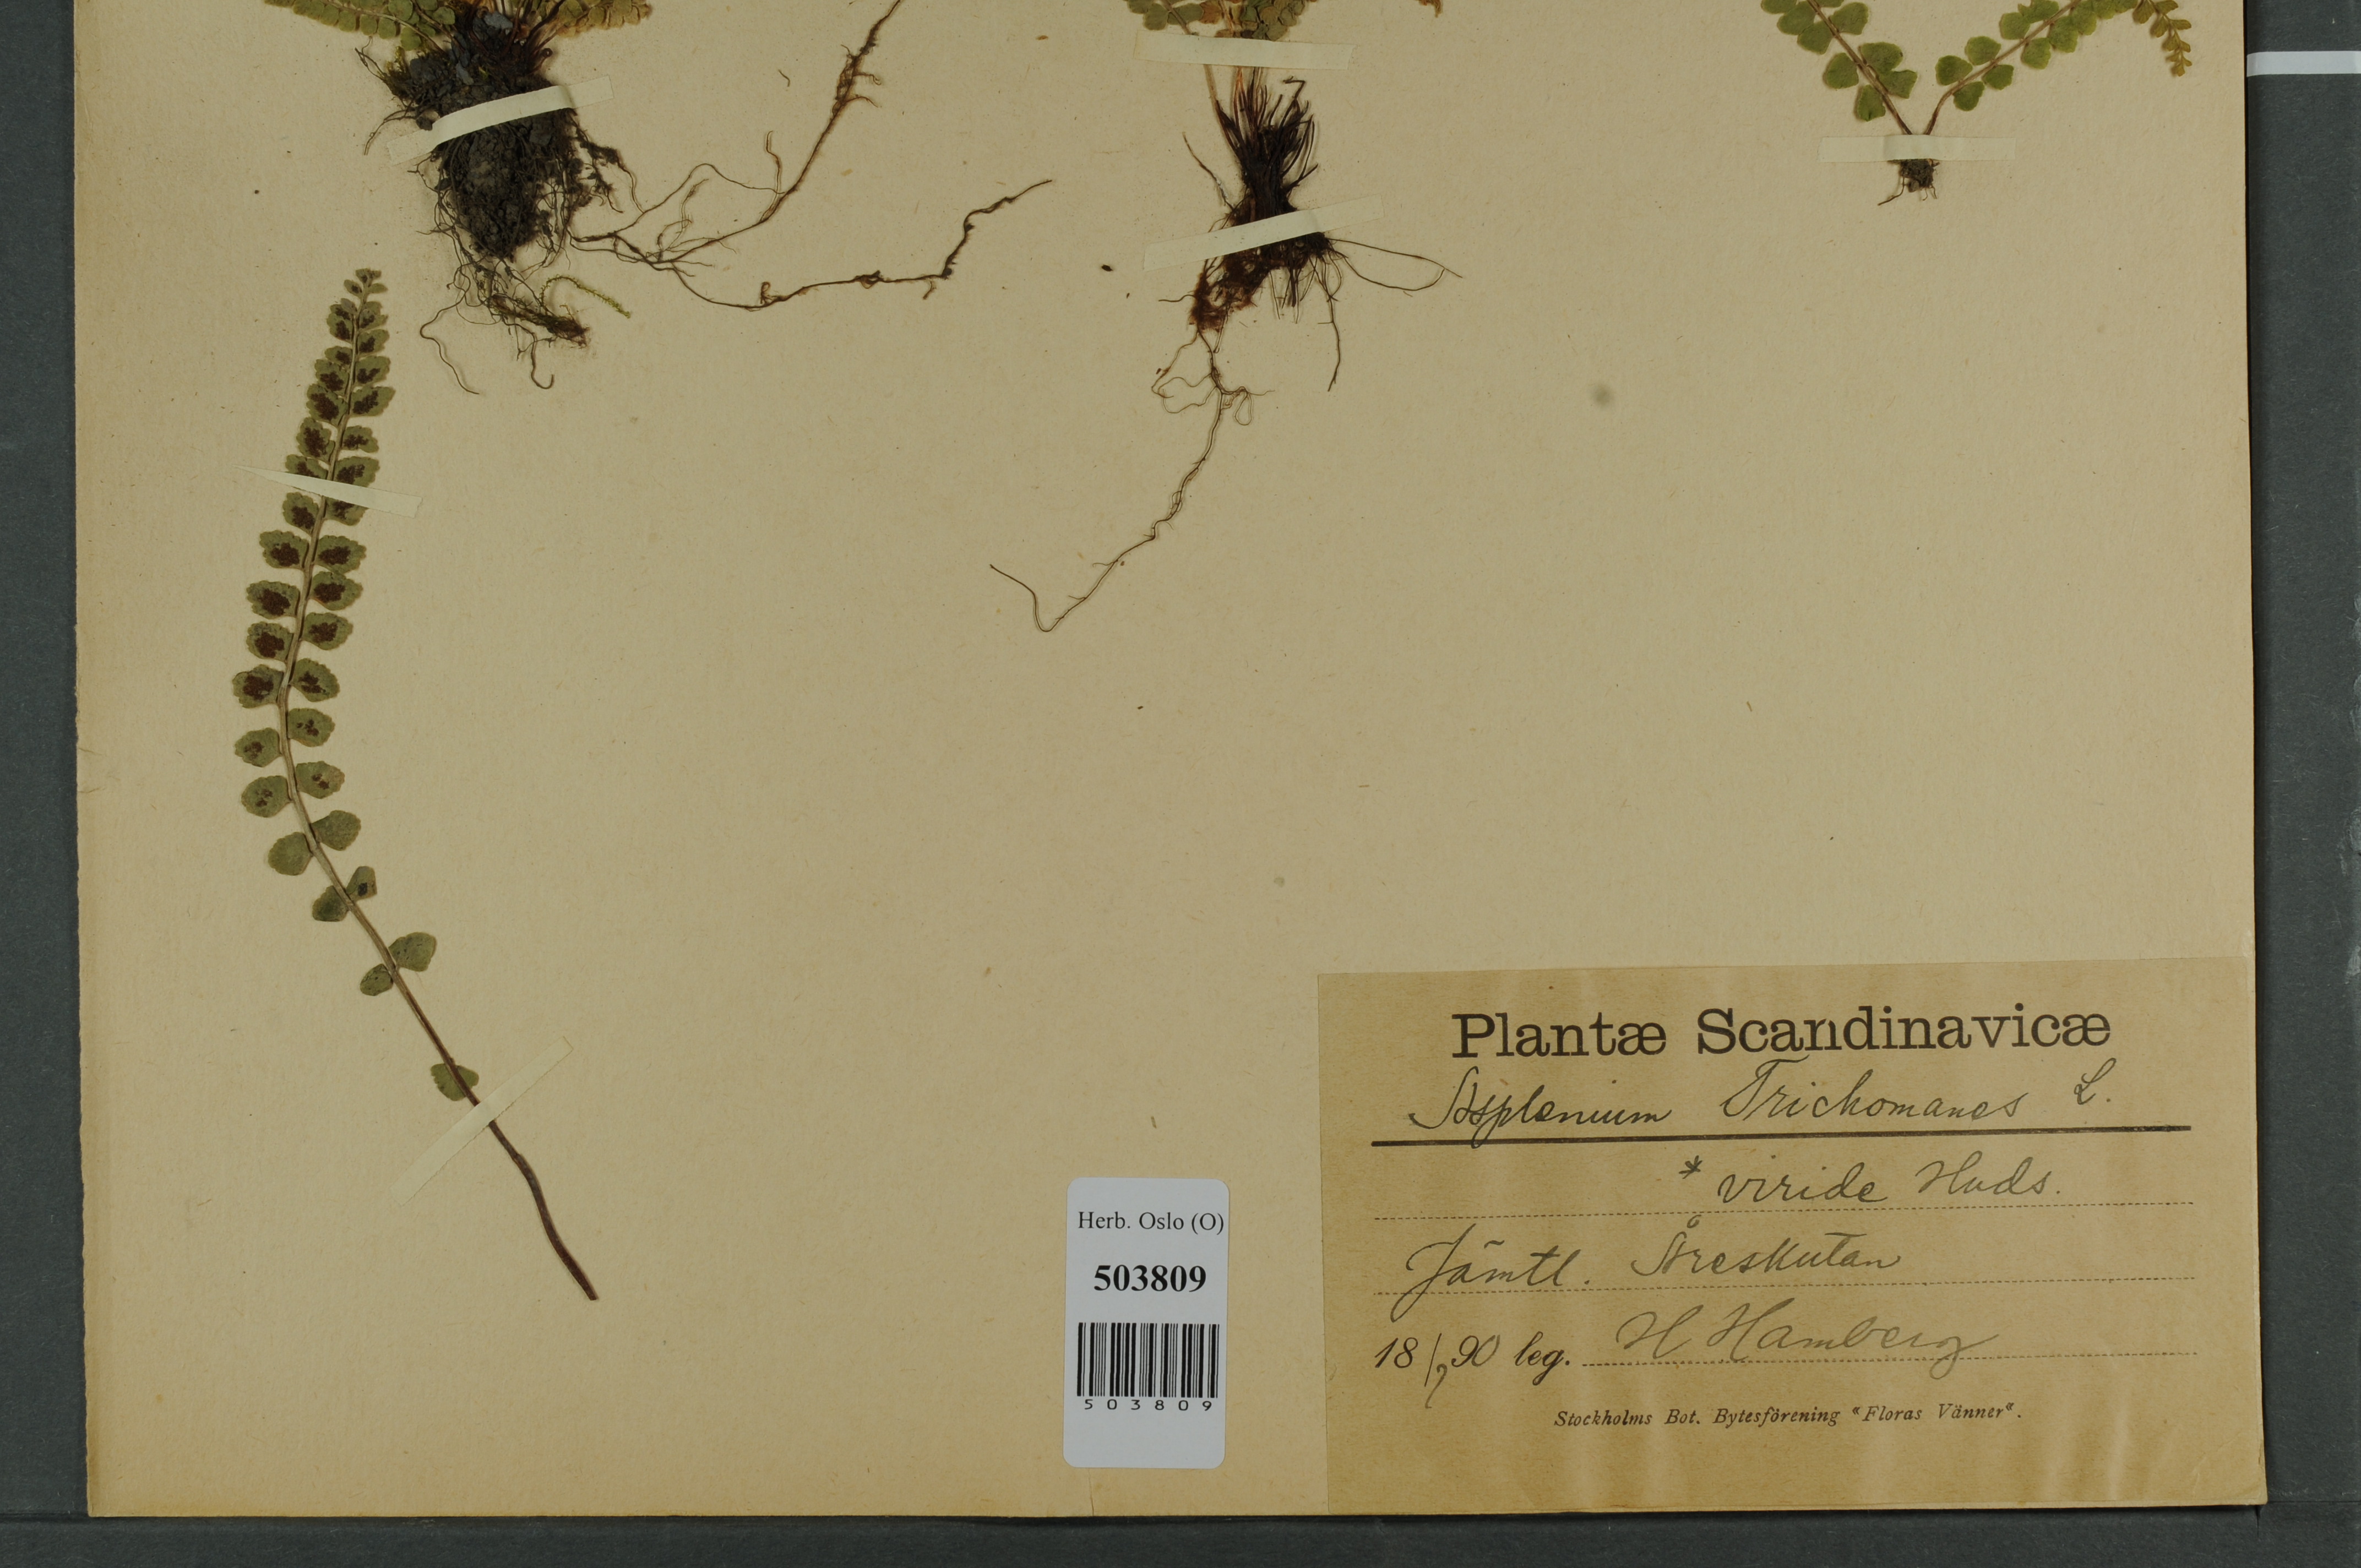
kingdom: Plantae
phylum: Tracheophyta
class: Polypodiopsida
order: Polypodiales
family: Aspleniaceae
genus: Asplenium
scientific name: Asplenium viride
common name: Green spleenwort
